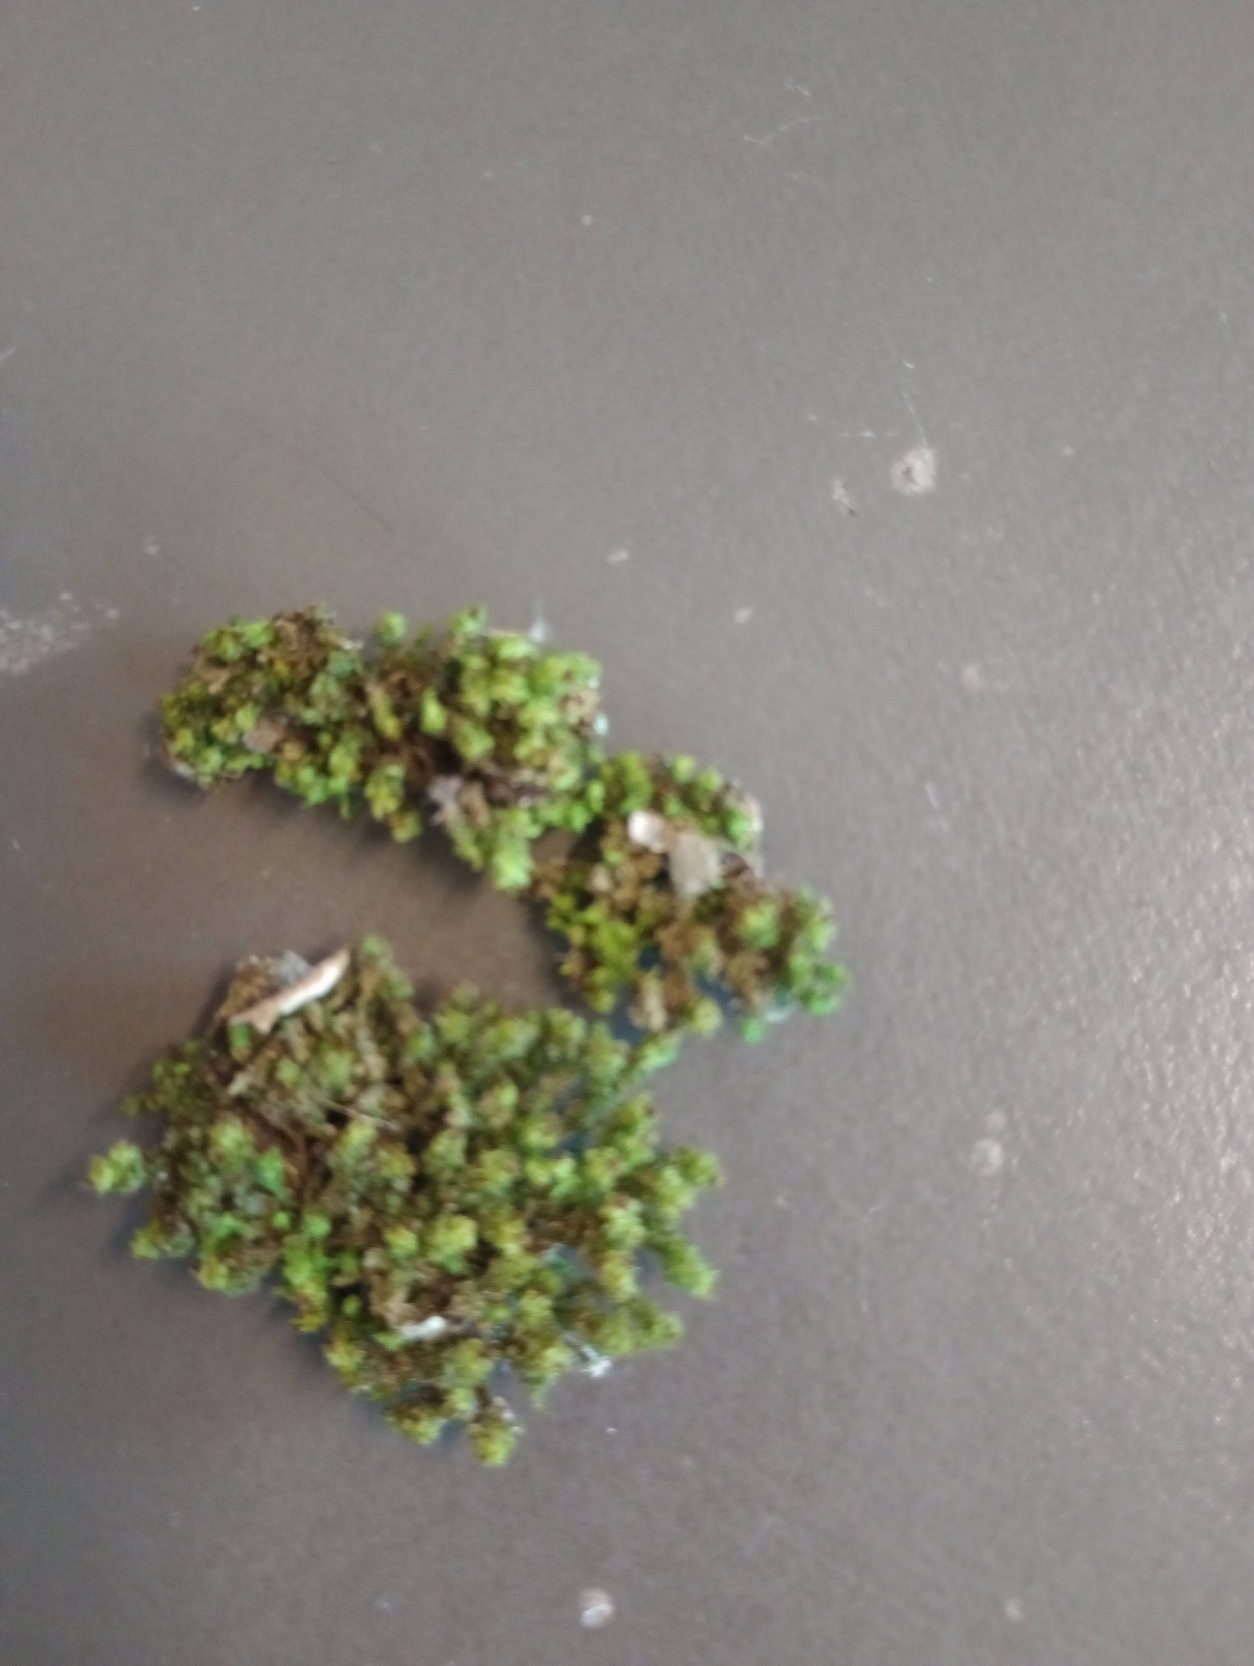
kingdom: Plantae
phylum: Bryophyta
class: Bryopsida
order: Orthotrichales
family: Orthotrichaceae
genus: Plenogemma
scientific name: Plenogemma phyllantha
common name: Stor låddenhætte
